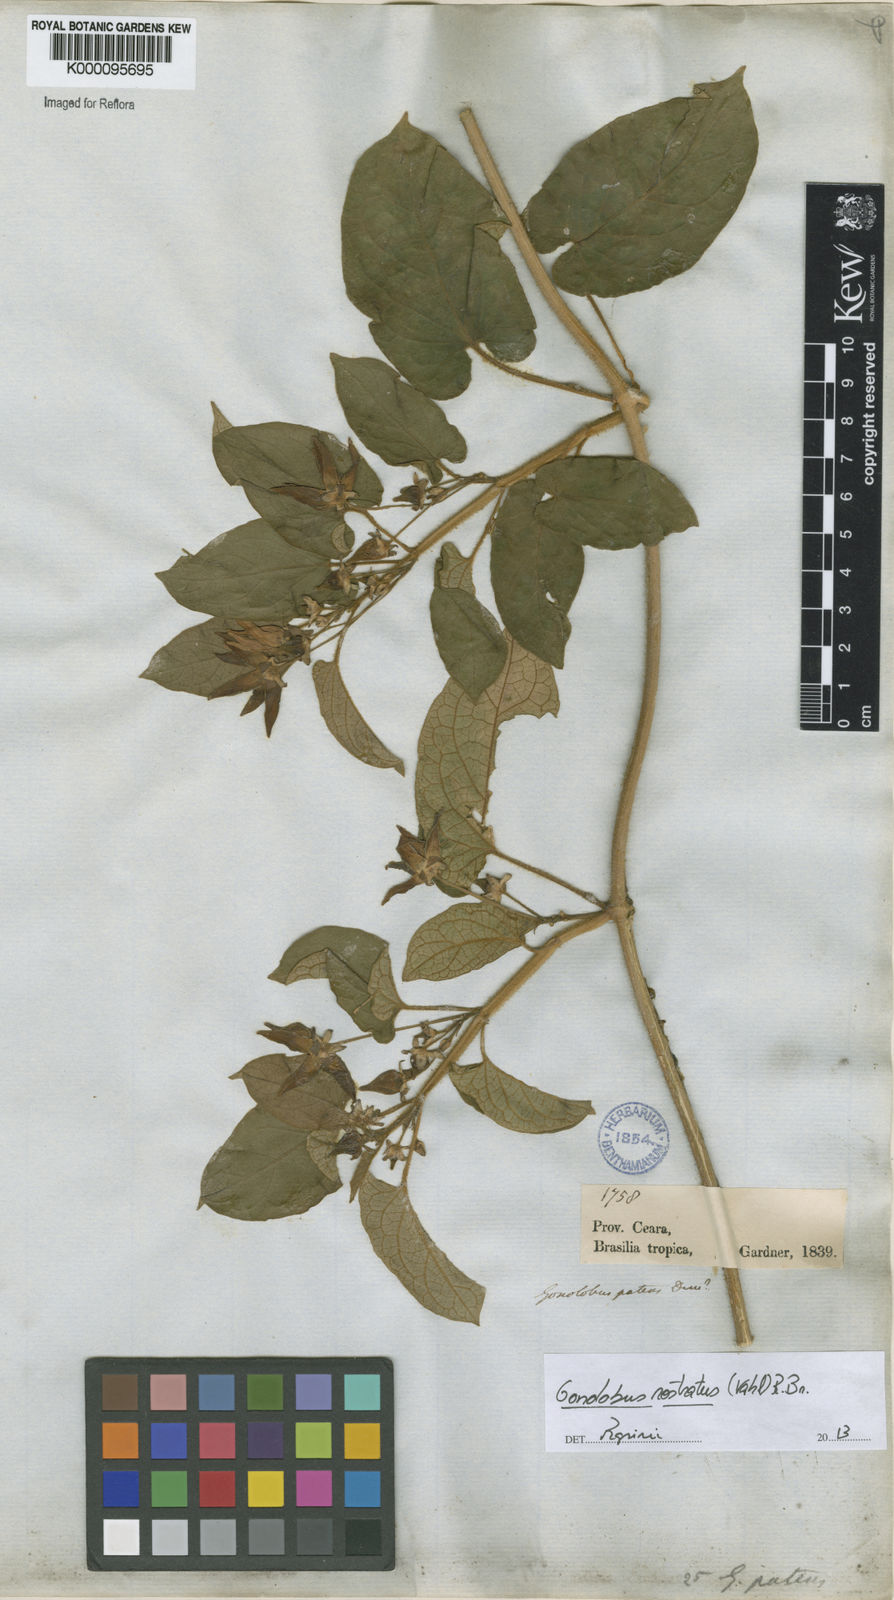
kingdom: Plantae
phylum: Tracheophyta
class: Magnoliopsida
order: Gentianales
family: Apocynaceae
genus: Gonolobus
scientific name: Gonolobus rostratus
